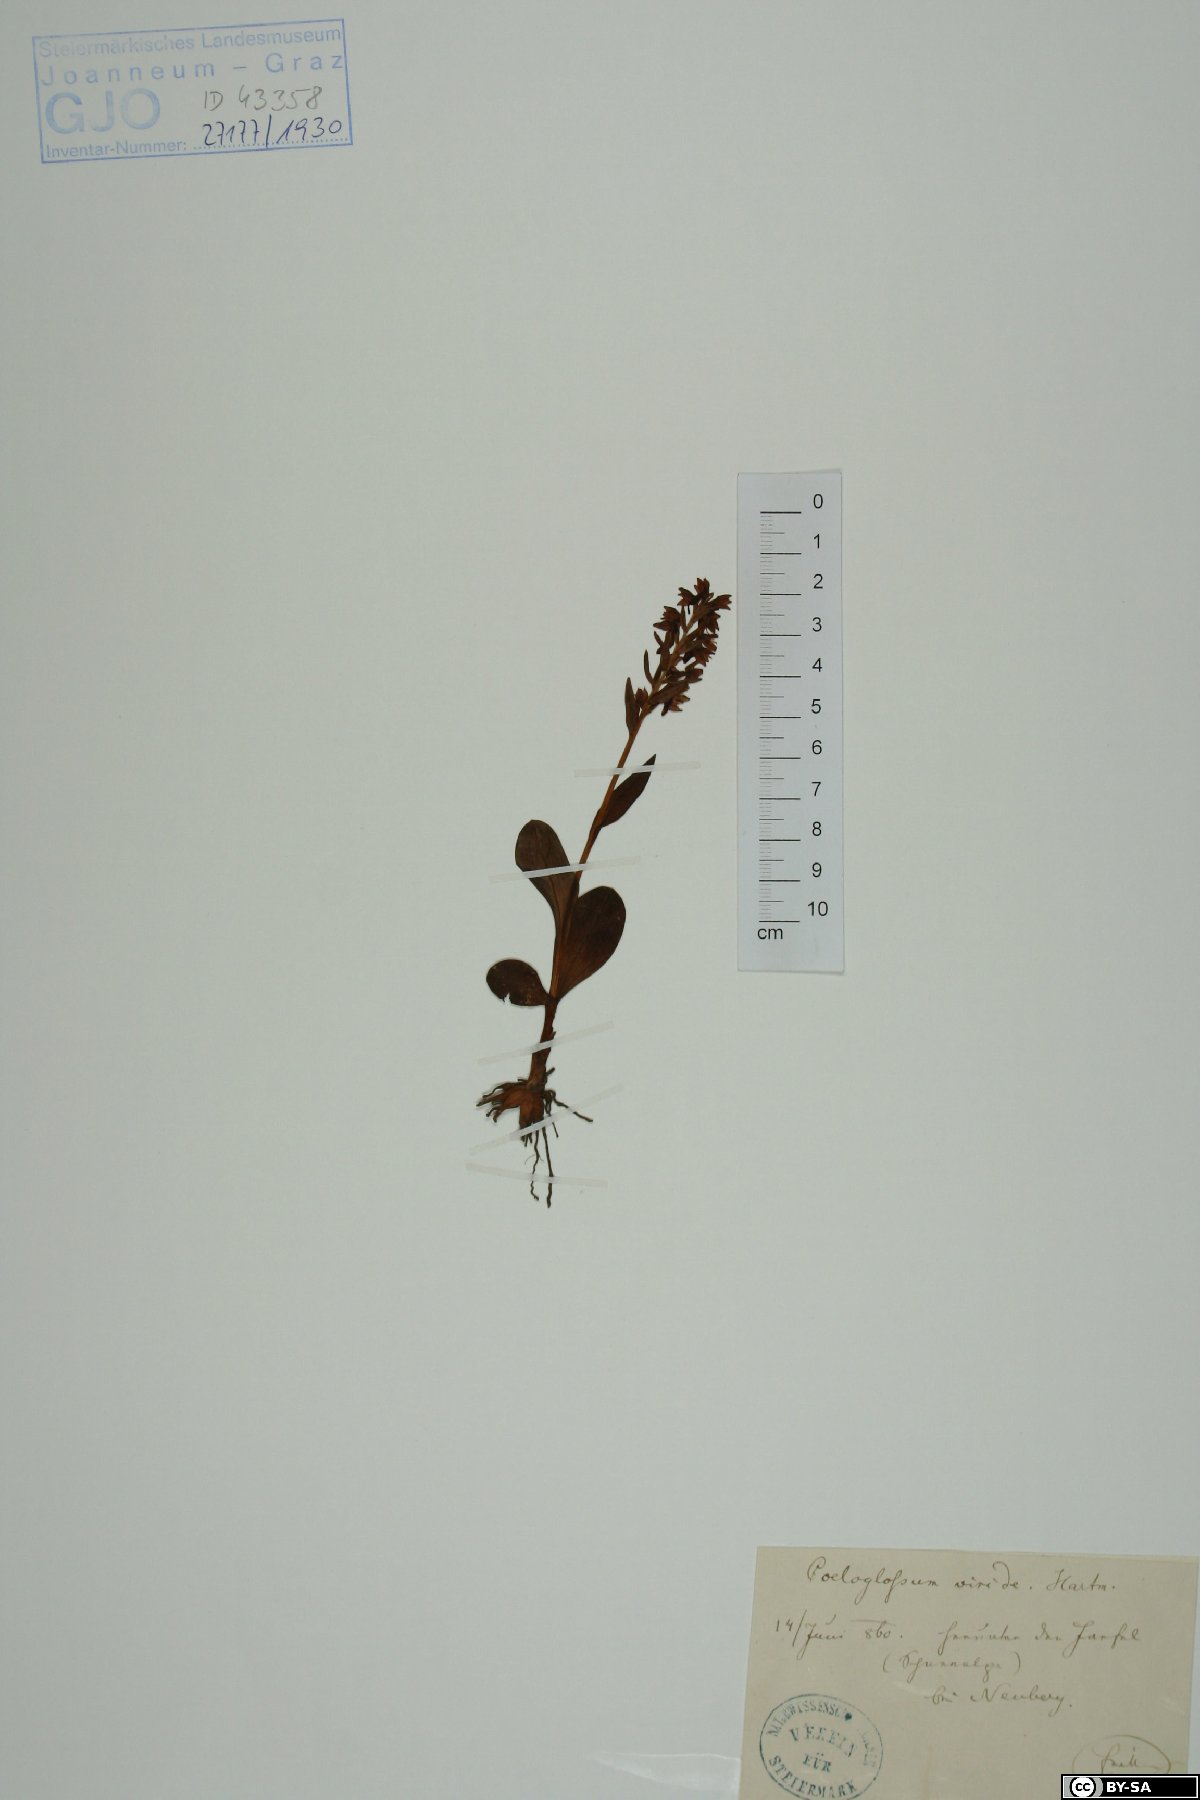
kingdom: Plantae
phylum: Tracheophyta
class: Liliopsida
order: Asparagales
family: Orchidaceae
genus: Dactylorhiza
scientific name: Dactylorhiza viridis
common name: Longbract frog orchid
